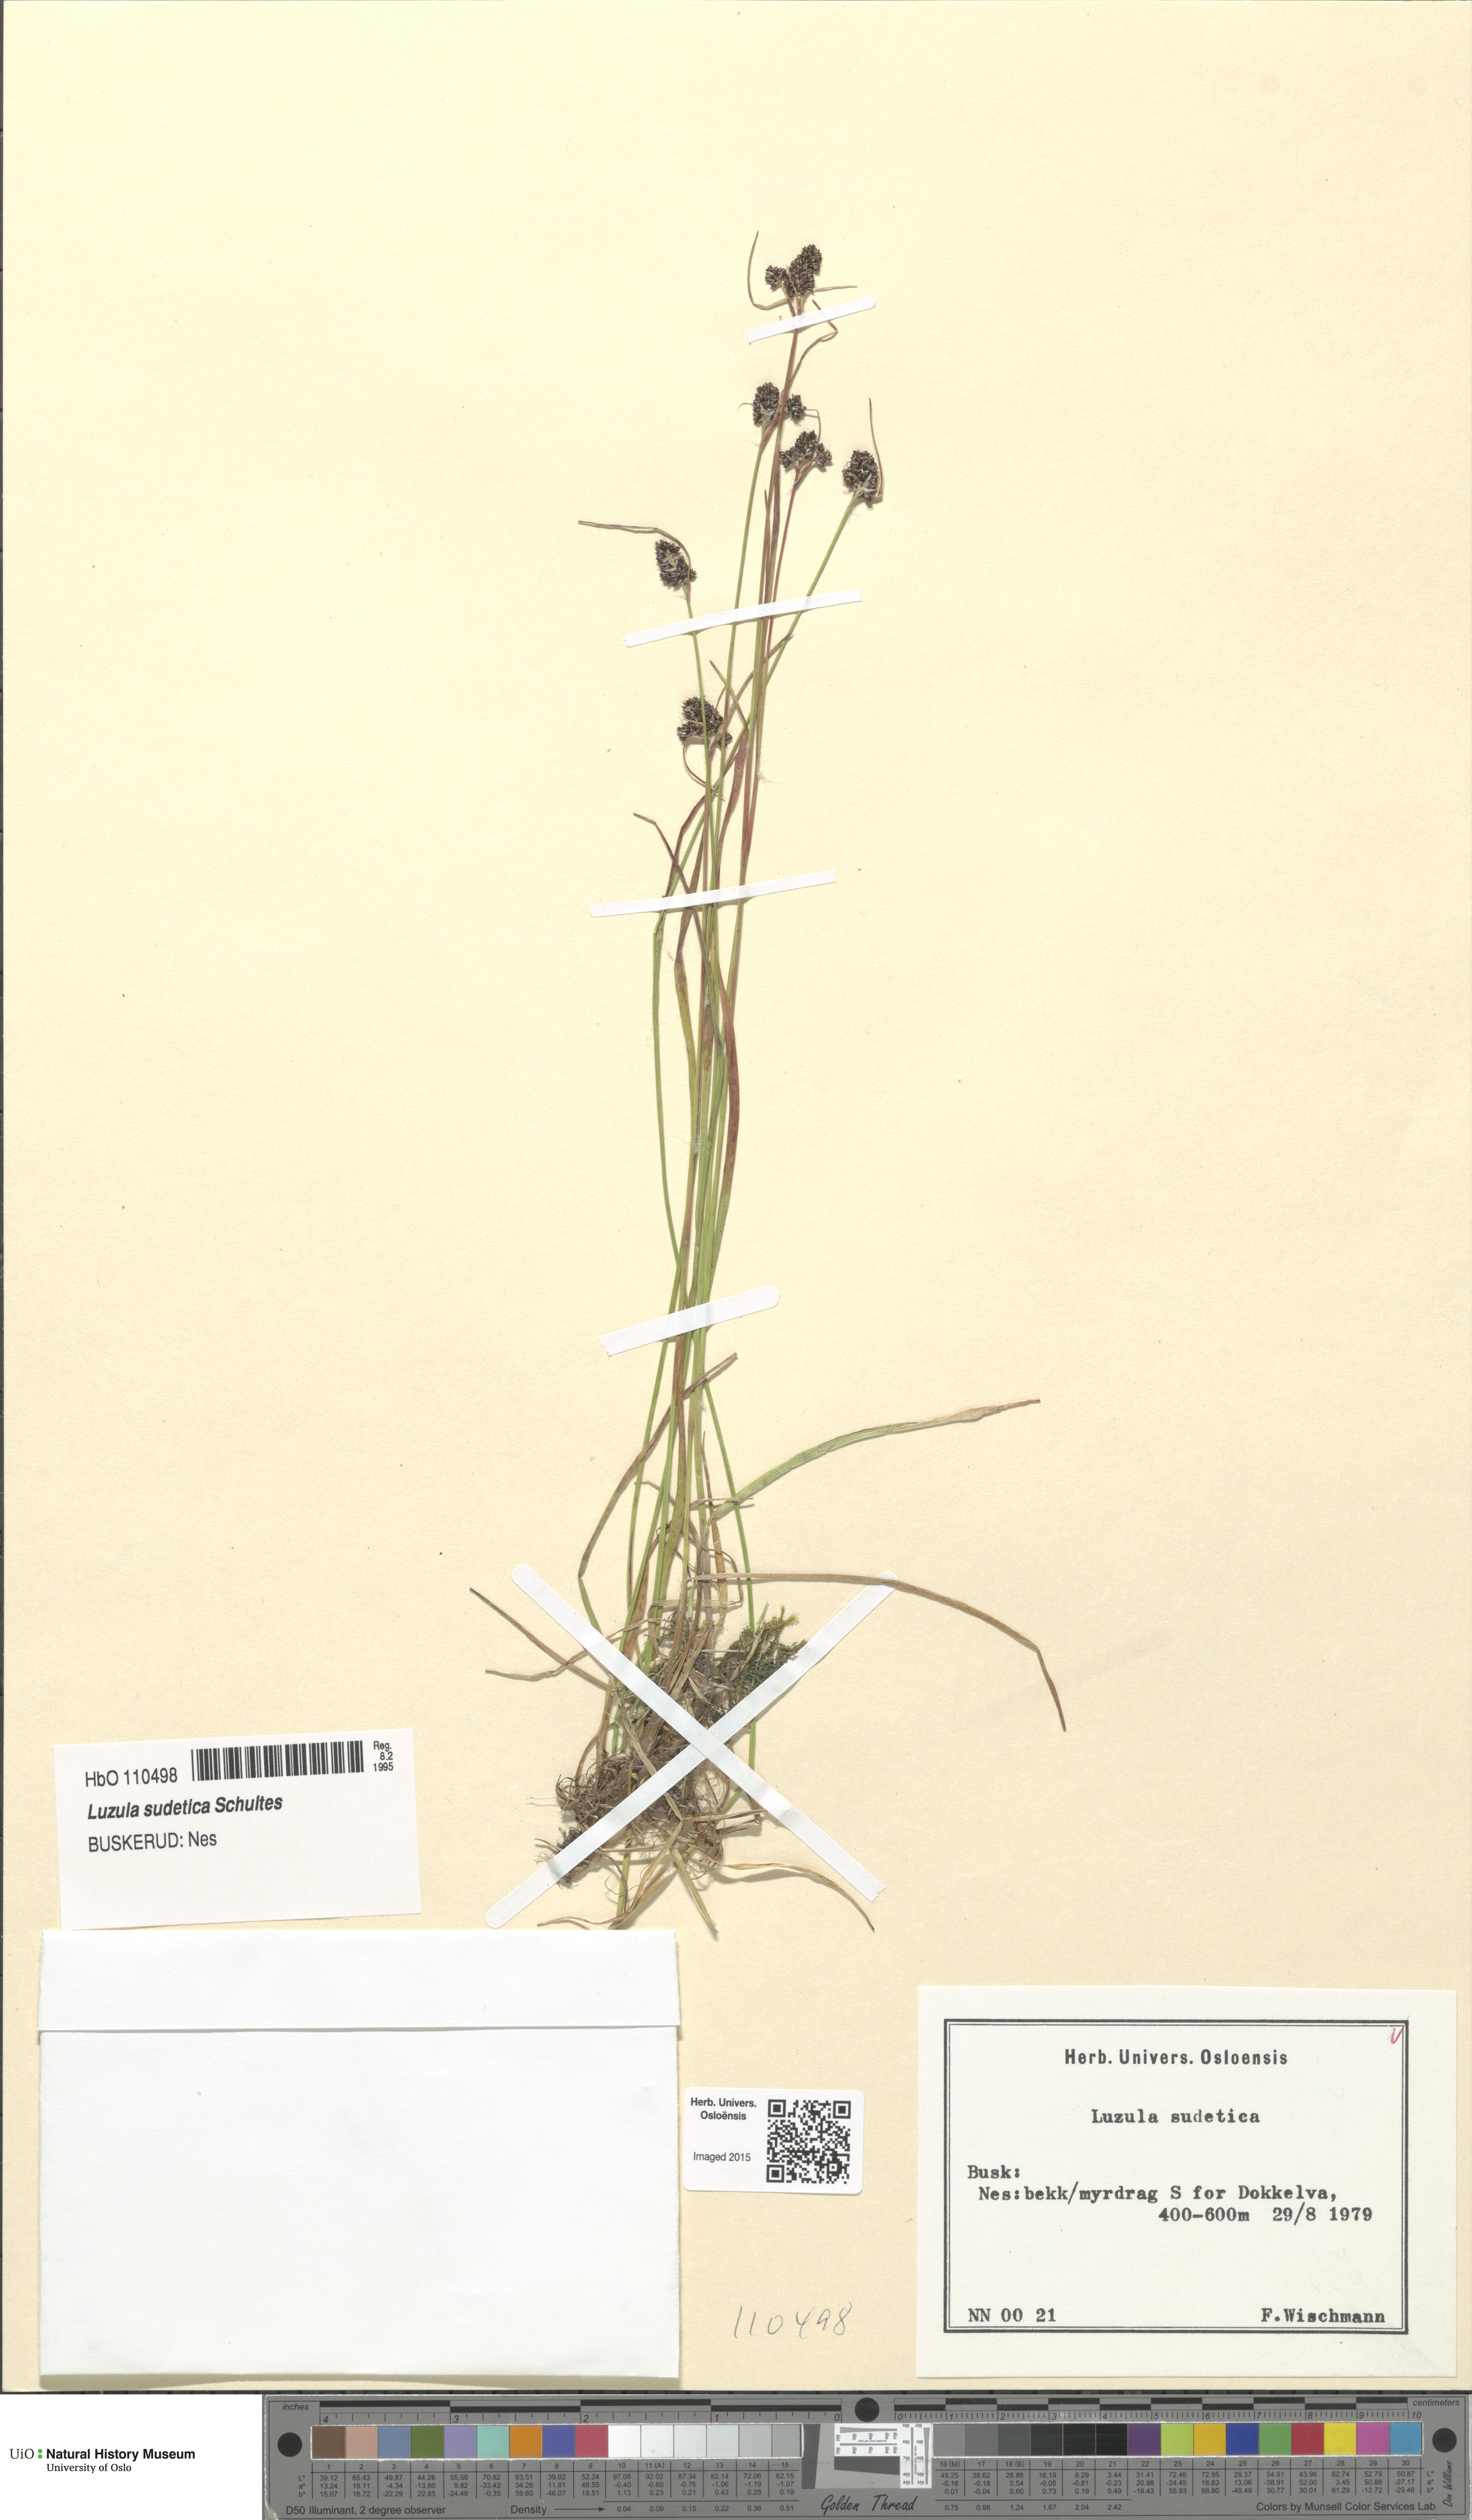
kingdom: Plantae
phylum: Tracheophyta
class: Liliopsida
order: Poales
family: Juncaceae
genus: Luzula
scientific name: Luzula sudetica
